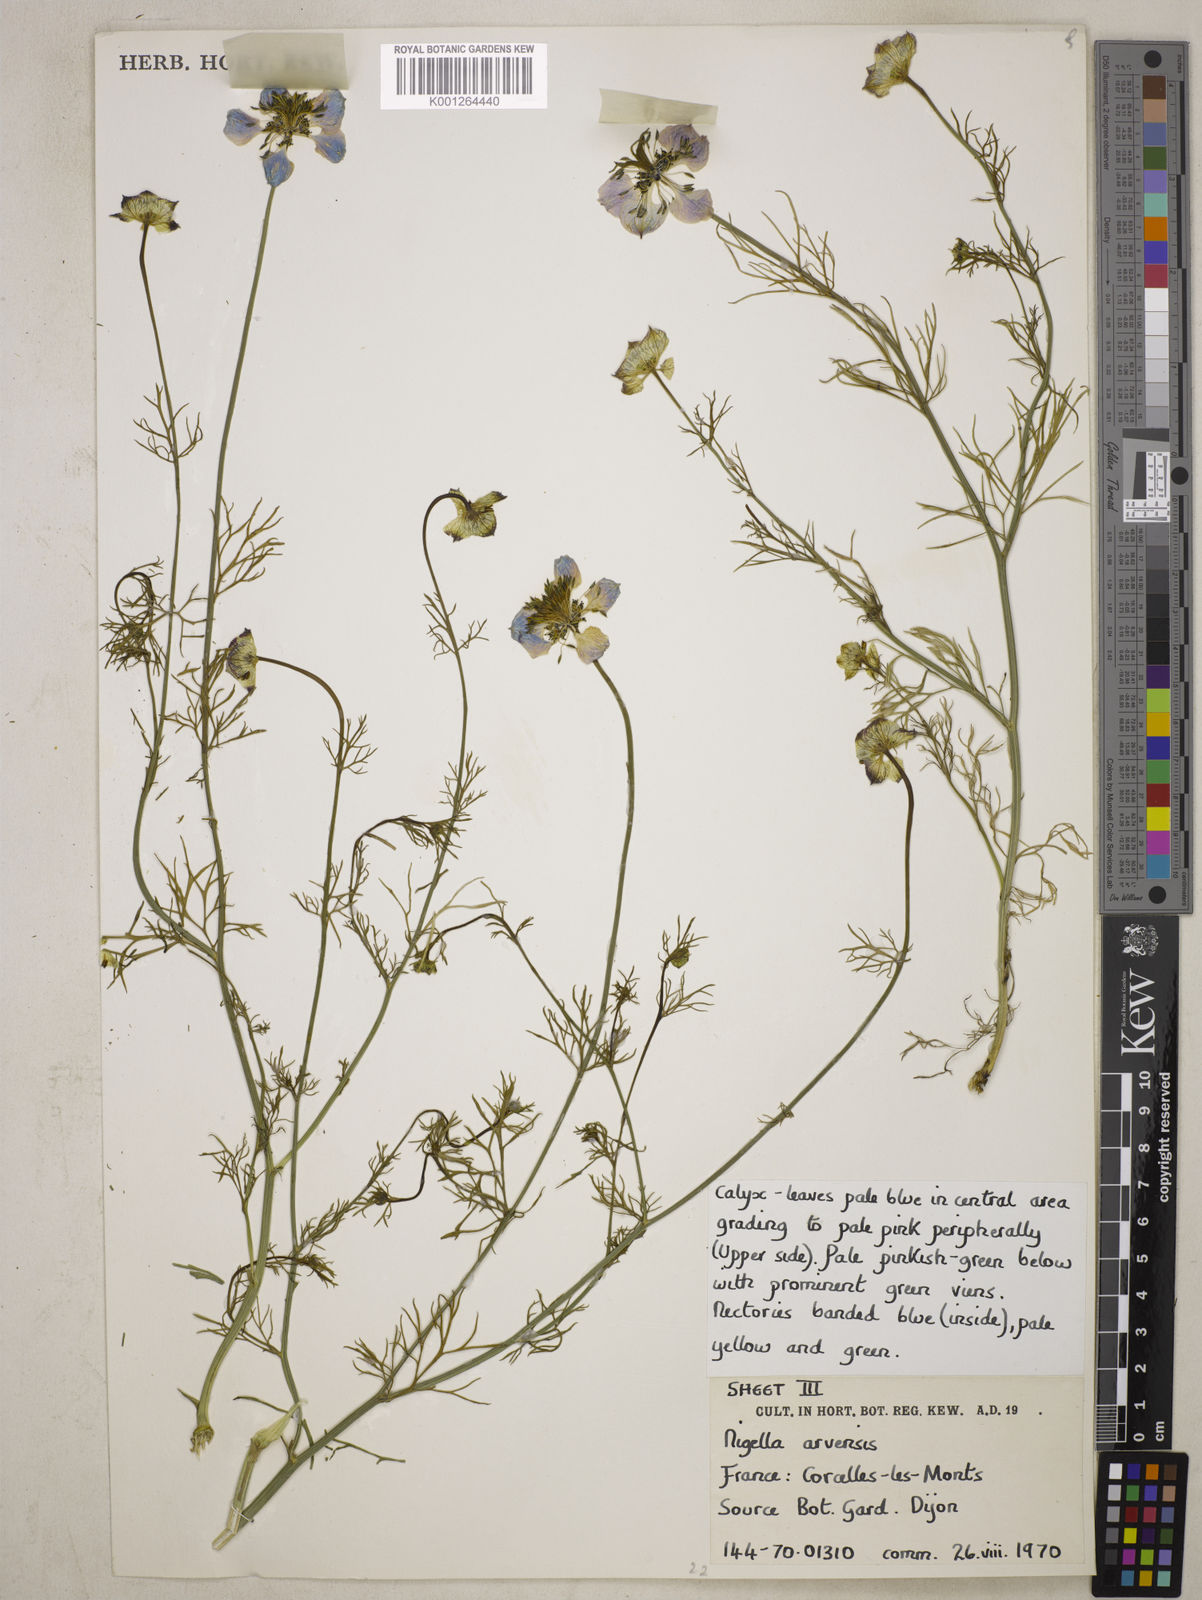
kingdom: Plantae
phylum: Tracheophyta
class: Magnoliopsida
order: Ranunculales
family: Ranunculaceae
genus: Nigella
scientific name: Nigella arvensis
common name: Wild fennel-flower
